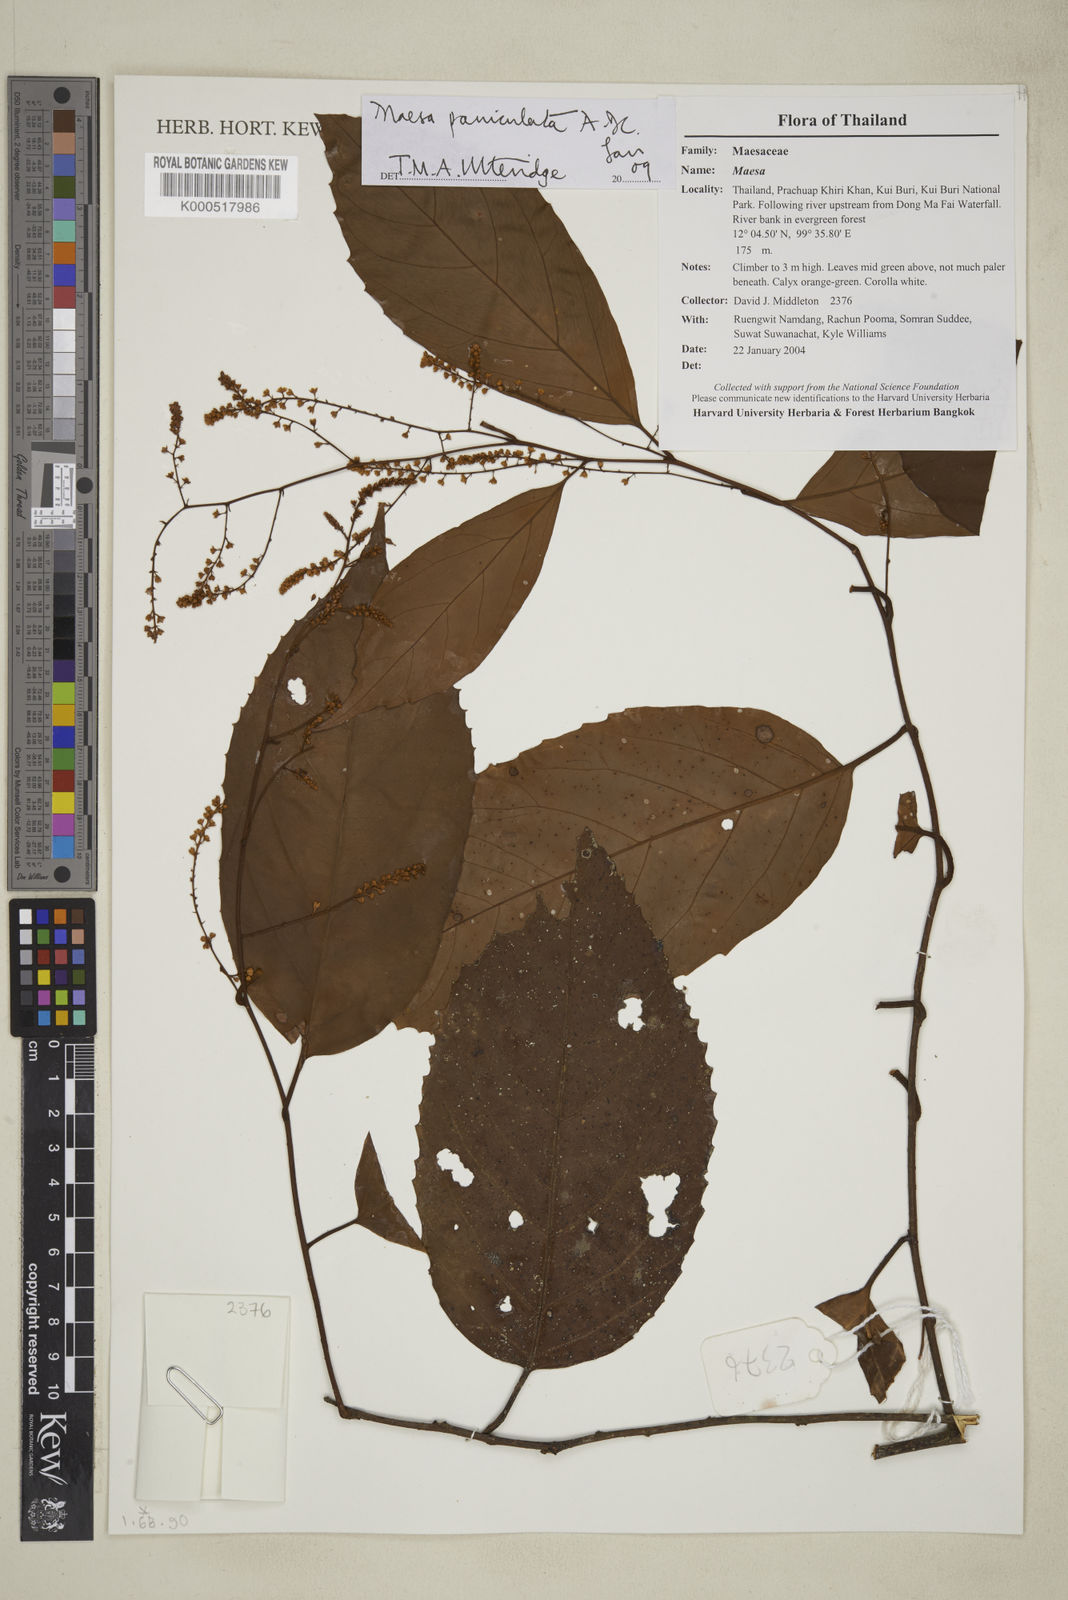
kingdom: Plantae
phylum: Tracheophyta
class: Magnoliopsida
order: Ericales
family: Primulaceae
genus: Maesa
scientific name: Maesa paniculata
